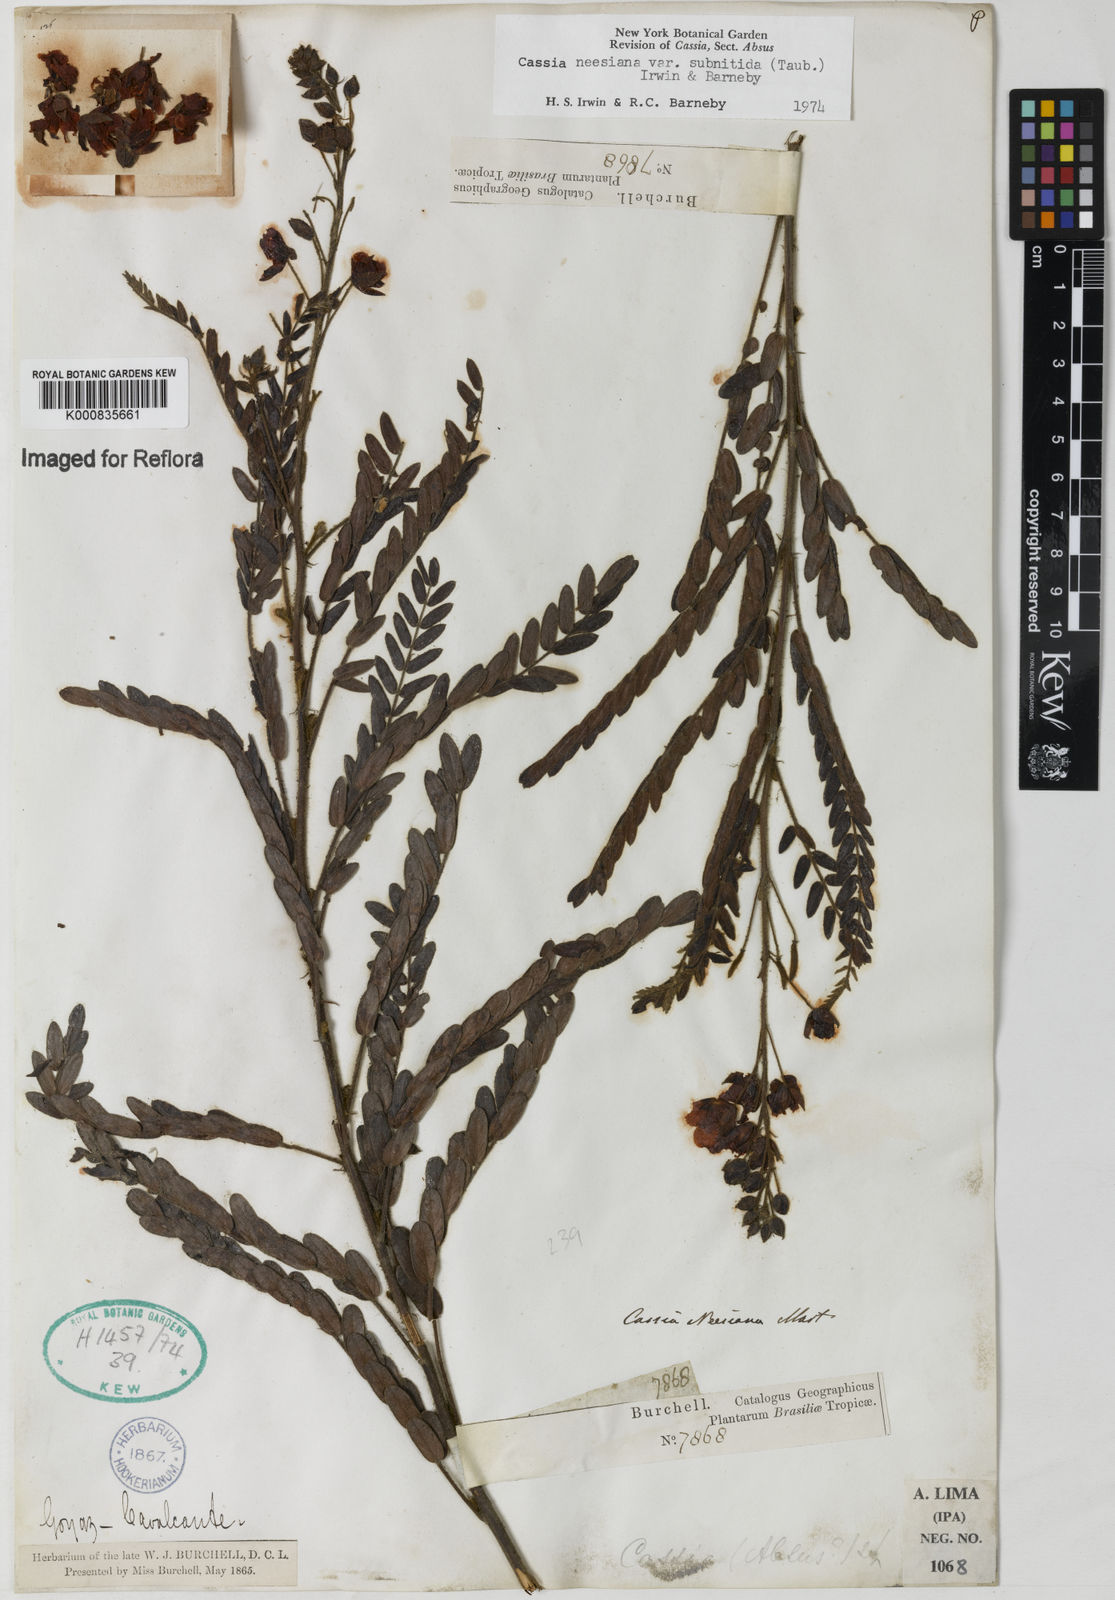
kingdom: Plantae
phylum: Tracheophyta
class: Magnoliopsida
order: Fabales
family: Fabaceae
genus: Chamaecrista
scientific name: Chamaecrista neesiana
